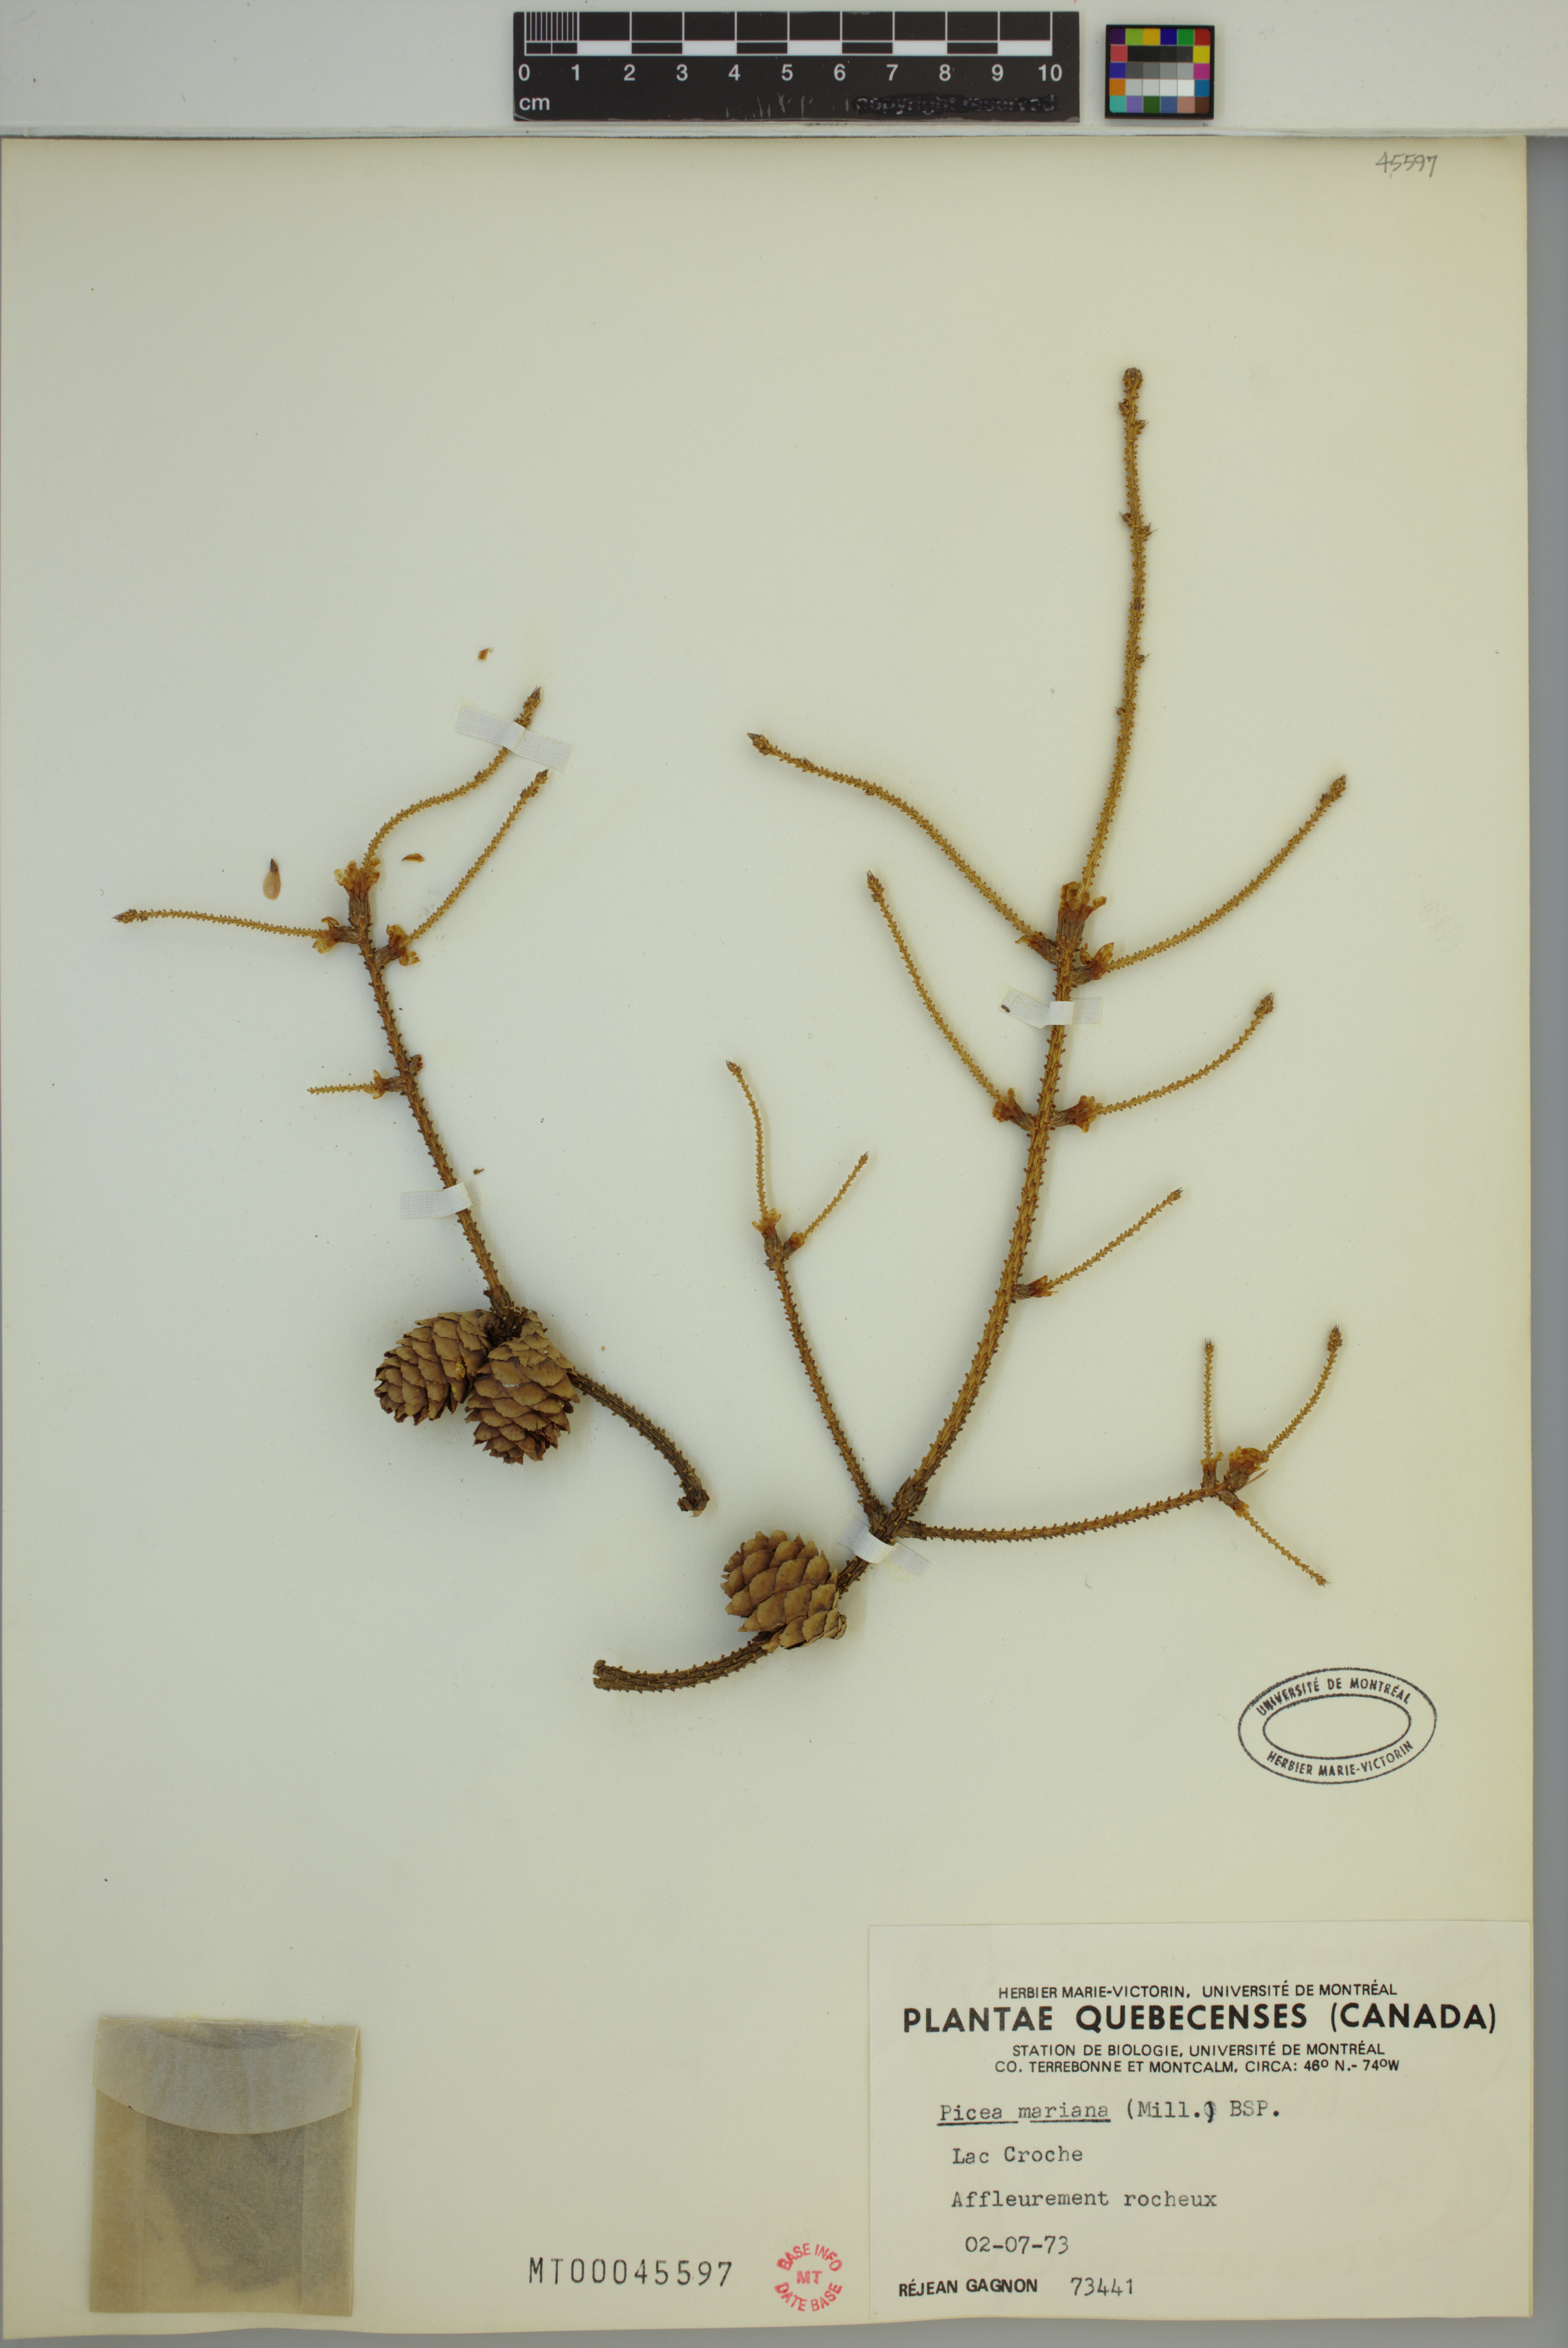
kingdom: Plantae
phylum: Tracheophyta
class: Pinopsida
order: Pinales
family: Pinaceae
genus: Picea
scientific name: Picea mariana
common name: Black spruce
